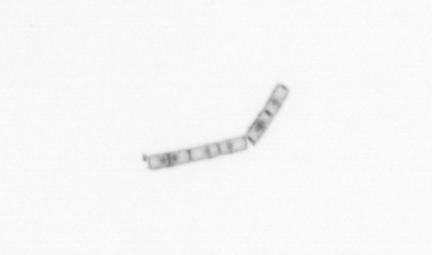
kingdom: Chromista
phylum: Ochrophyta
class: Bacillariophyceae
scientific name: Bacillariophyceae
